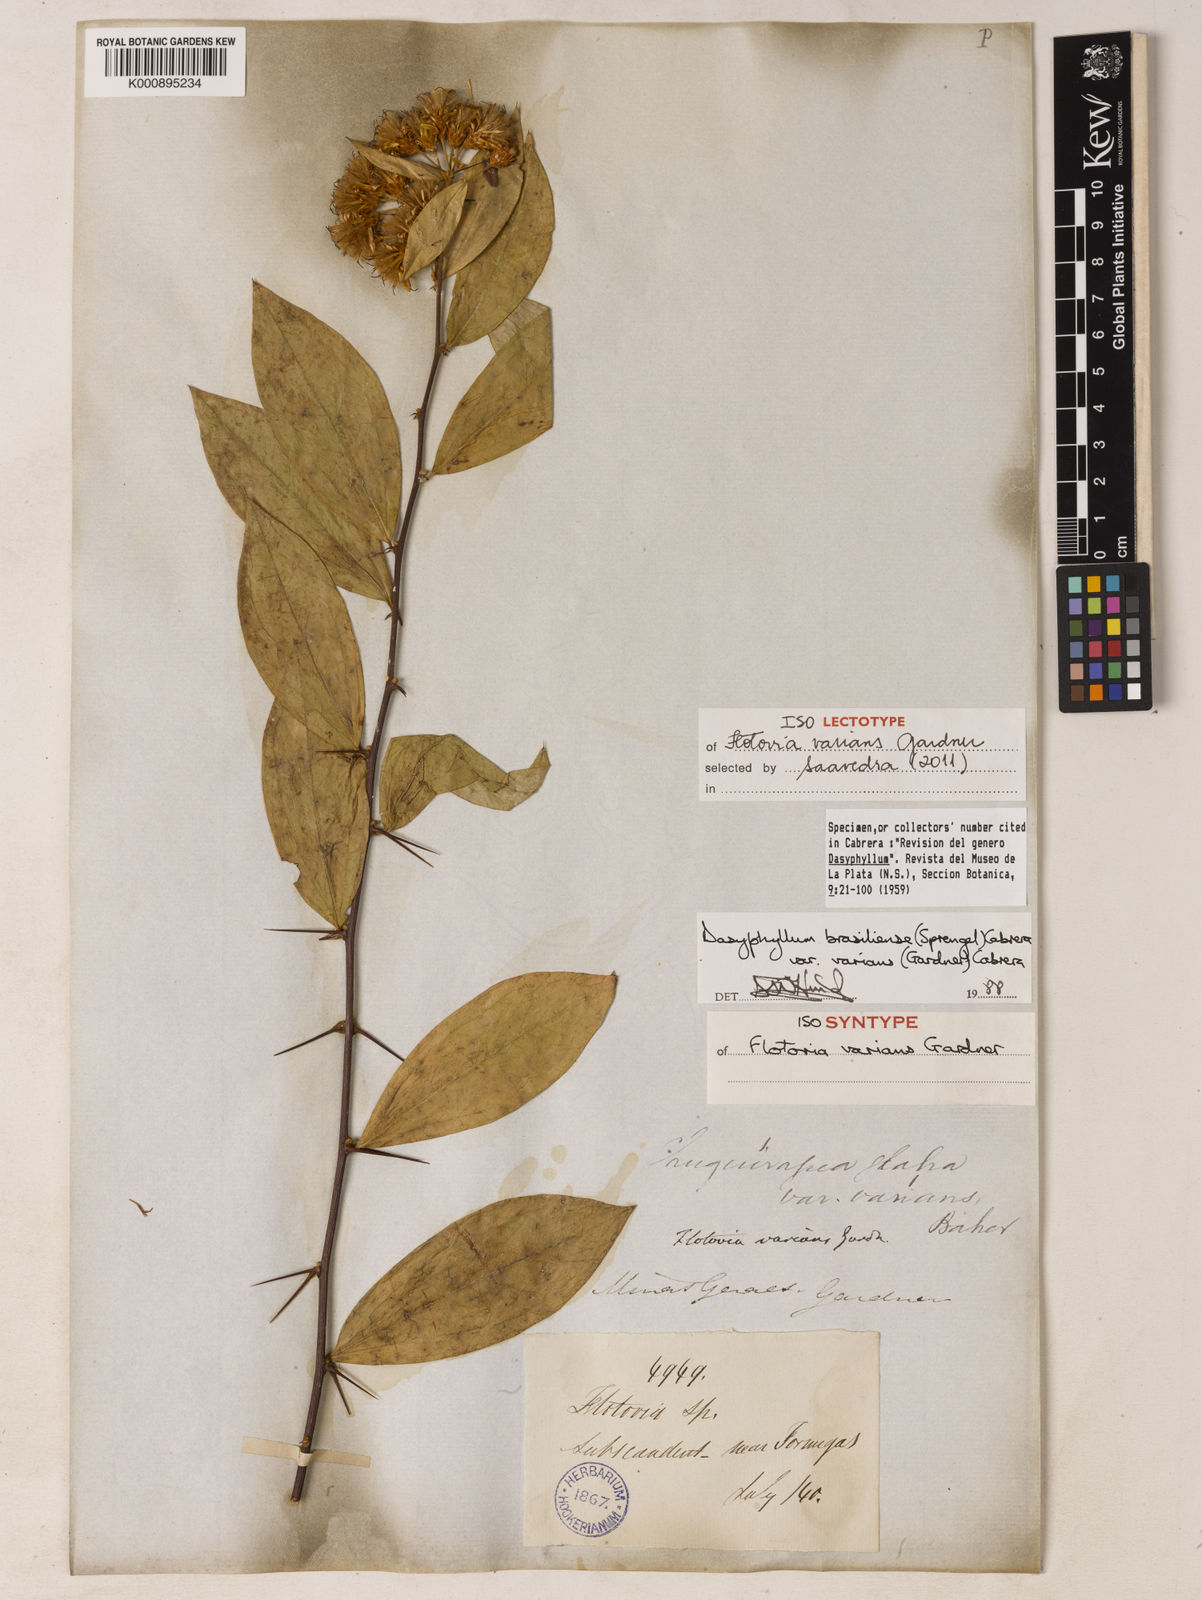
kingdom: Plantae
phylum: Tracheophyta
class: Magnoliopsida
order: Asterales
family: Asteraceae
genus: Dasyphyllum
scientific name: Dasyphyllum varians
